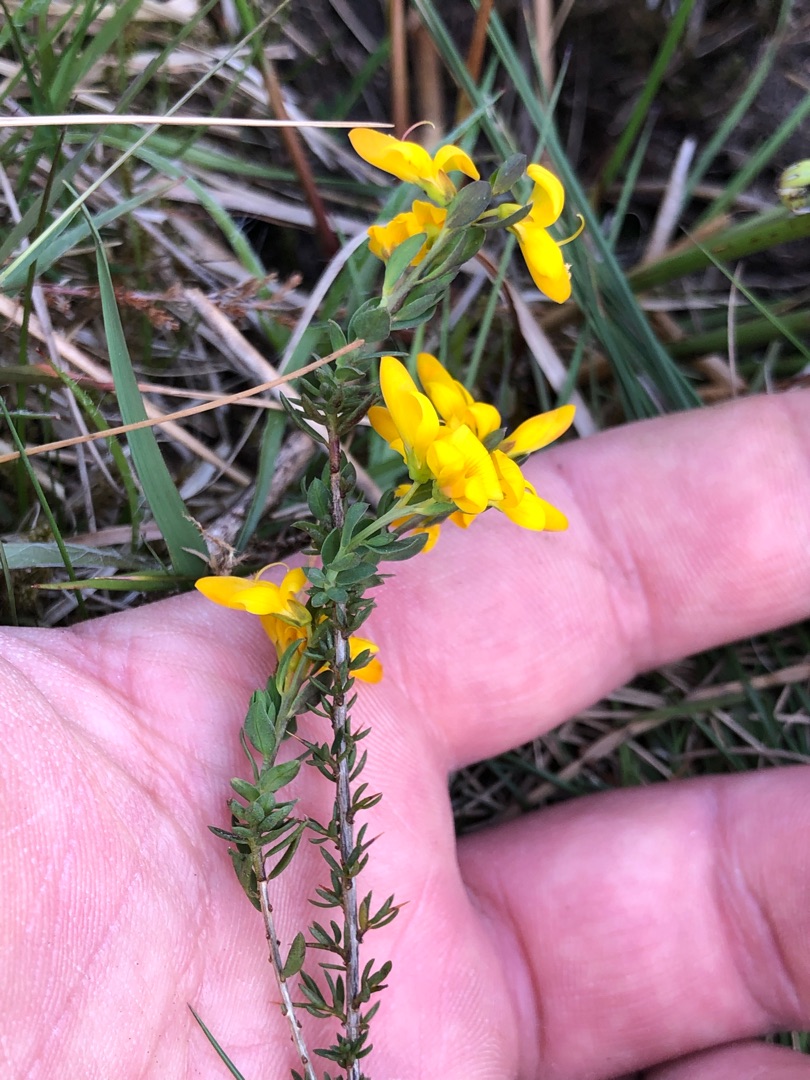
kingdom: Plantae
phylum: Tracheophyta
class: Magnoliopsida
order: Fabales
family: Fabaceae
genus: Genista
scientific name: Genista anglica
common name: Engelsk visse
